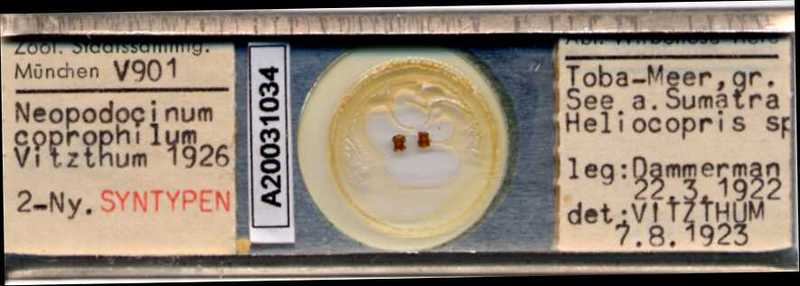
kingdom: Animalia
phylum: Arthropoda
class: Arachnida
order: Mesostigmata
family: Macrochelidae
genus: Neopodocinum
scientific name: Neopodocinum
